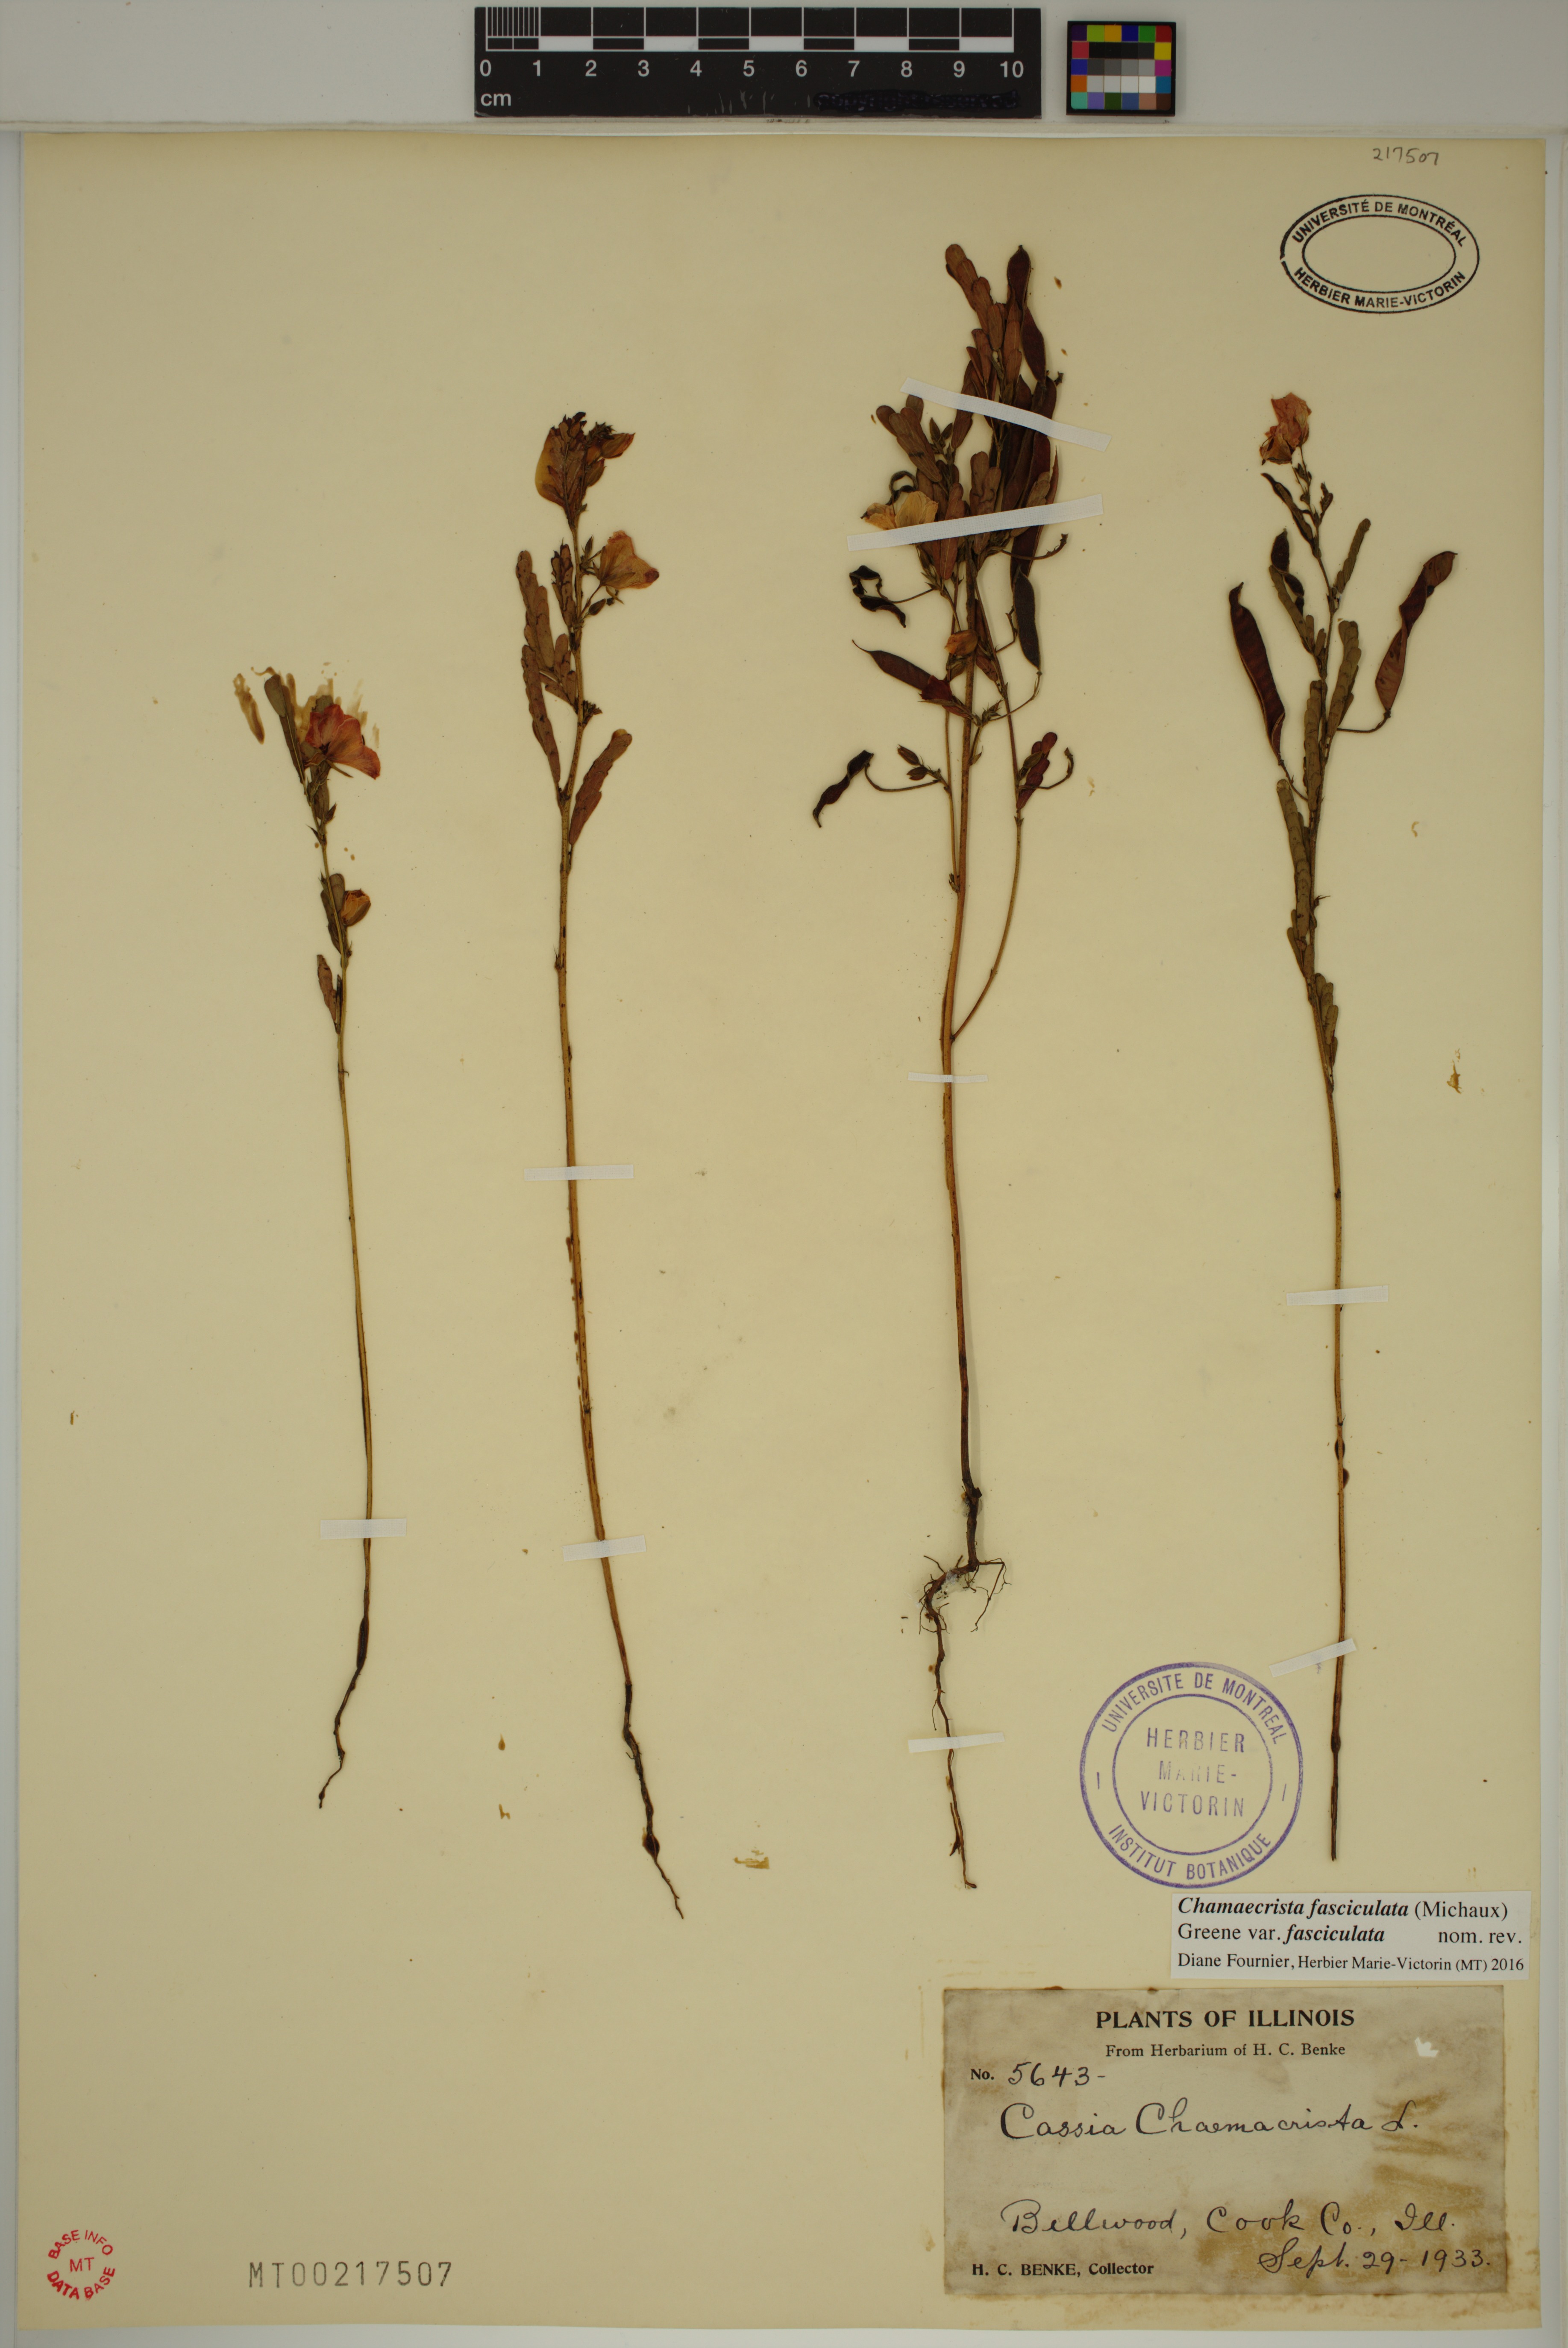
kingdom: Plantae
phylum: Tracheophyta
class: Magnoliopsida
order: Fabales
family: Fabaceae
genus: Chamaecrista
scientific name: Chamaecrista fasciculata
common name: Golden cassia
